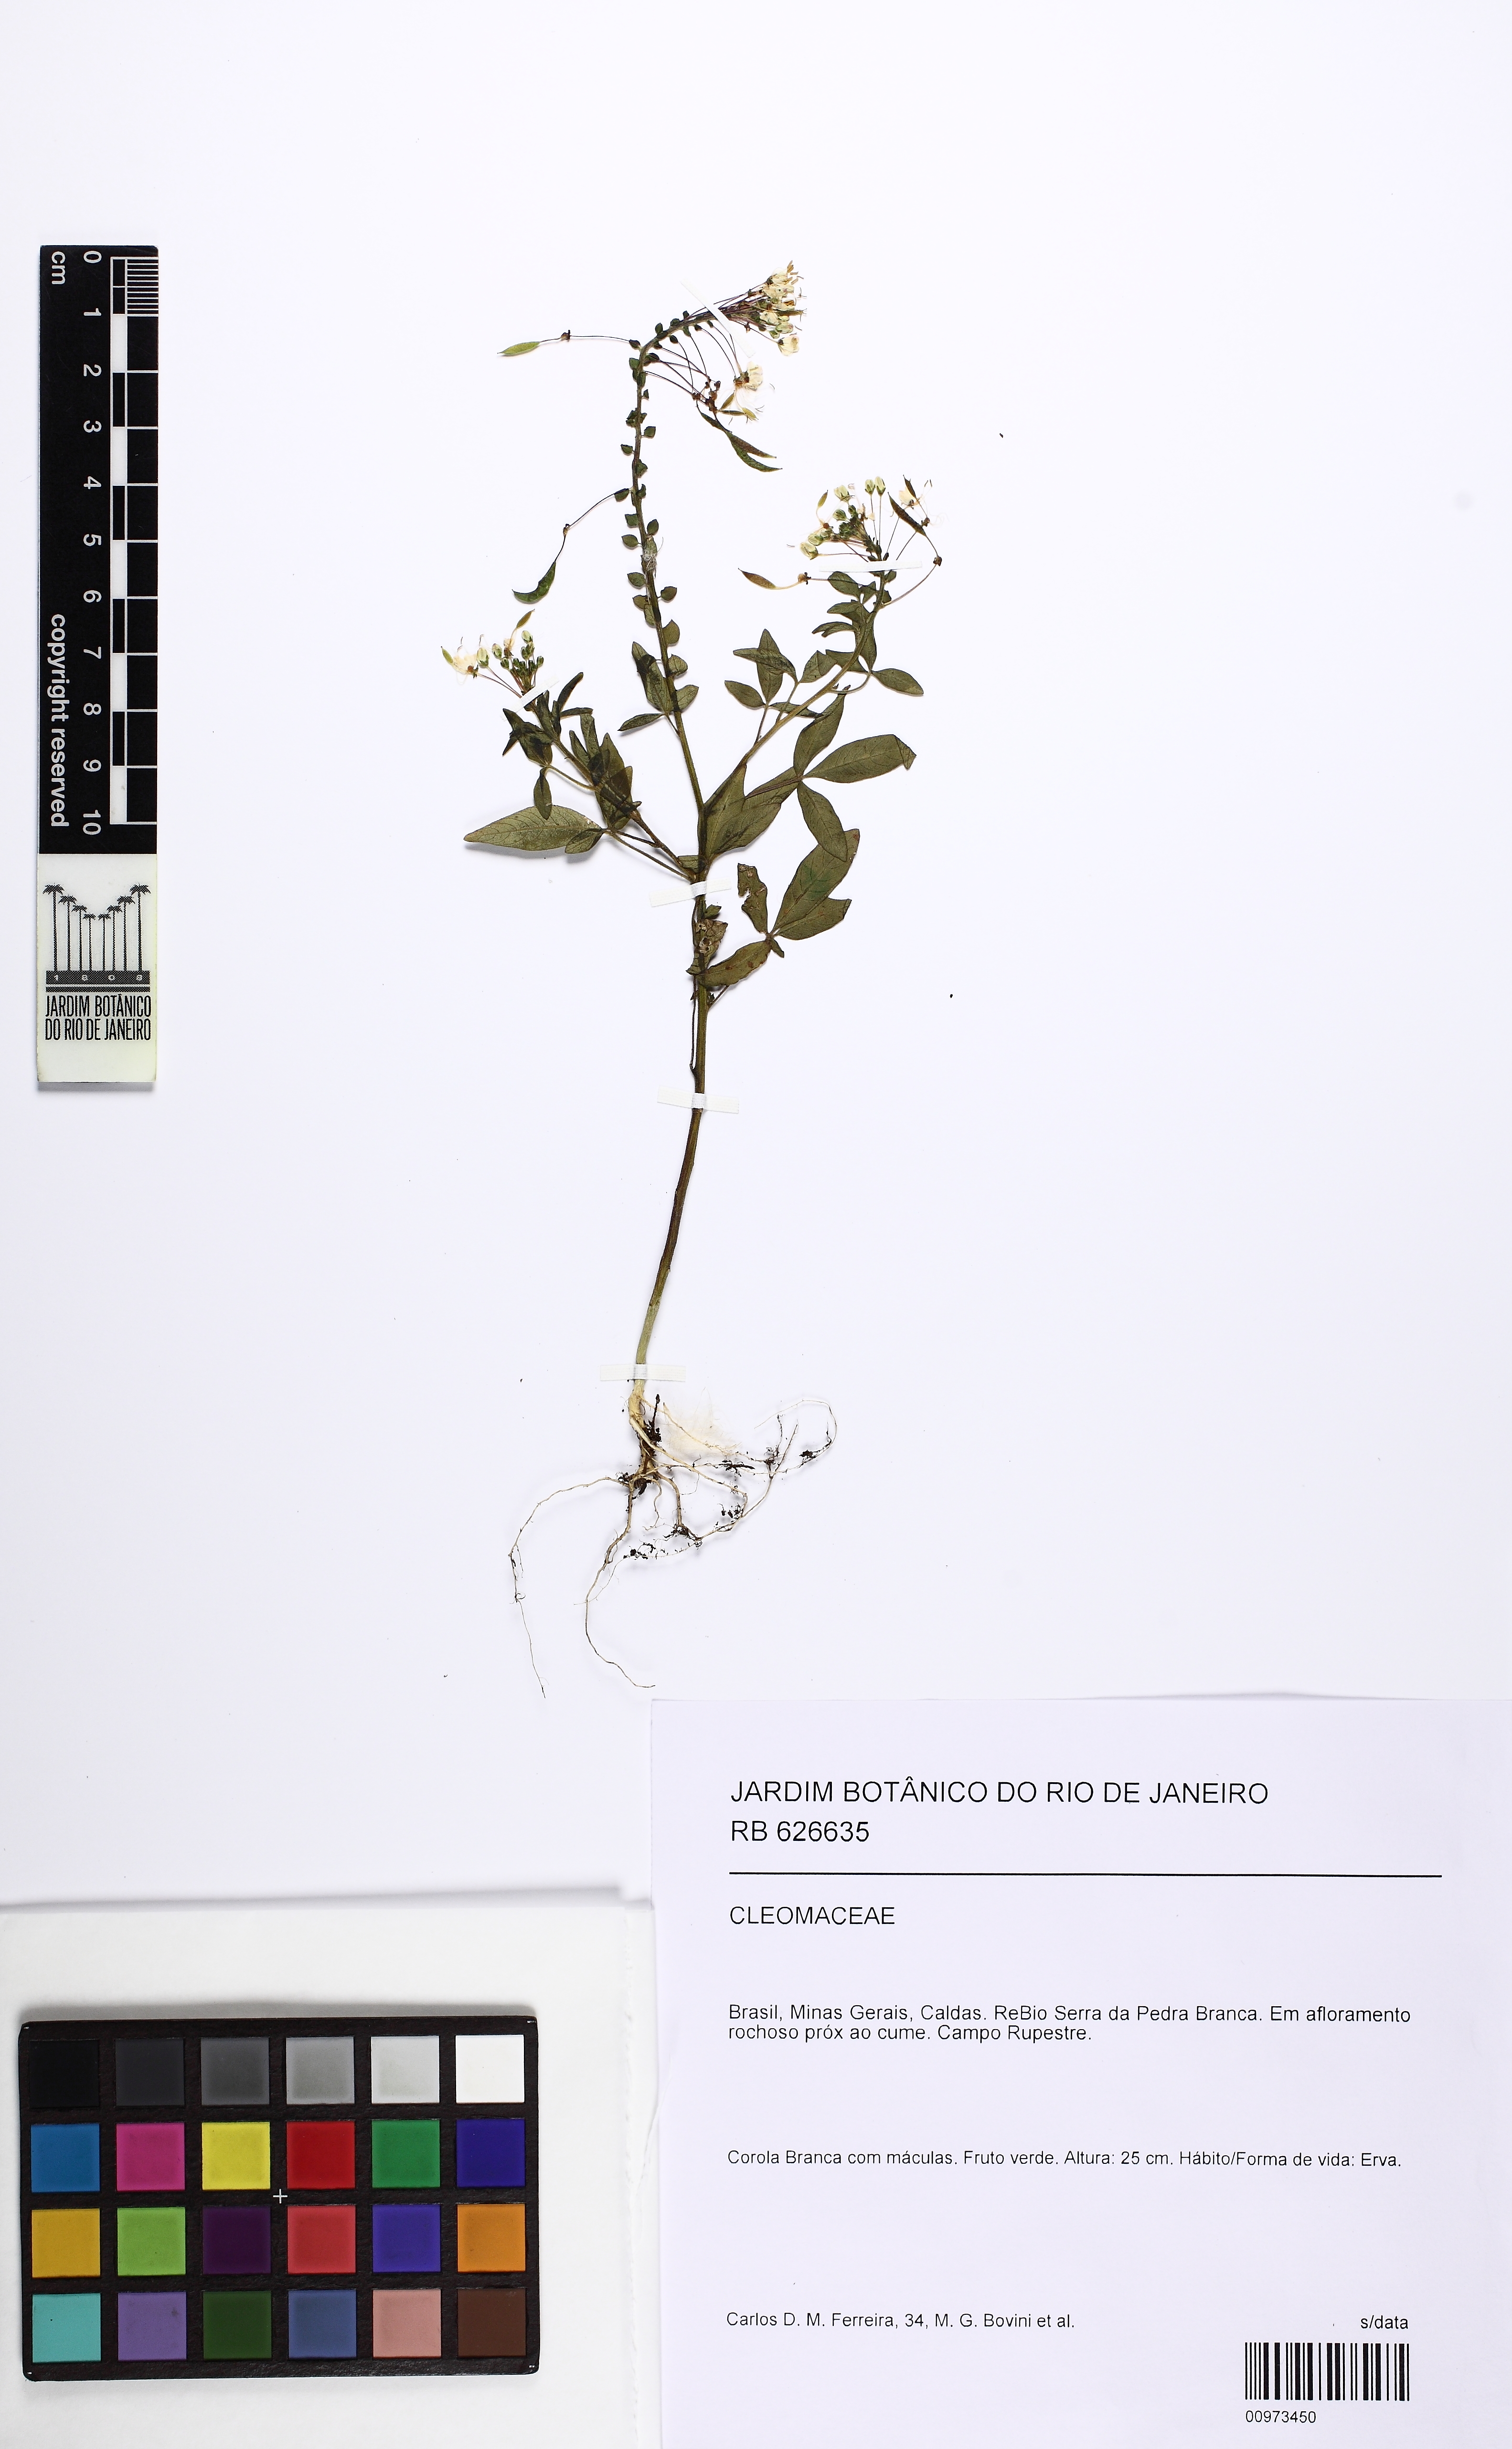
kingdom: Plantae
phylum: Tracheophyta
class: Magnoliopsida
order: Brassicales
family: Cleomaceae
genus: Tarenaya
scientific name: Tarenaya virens
